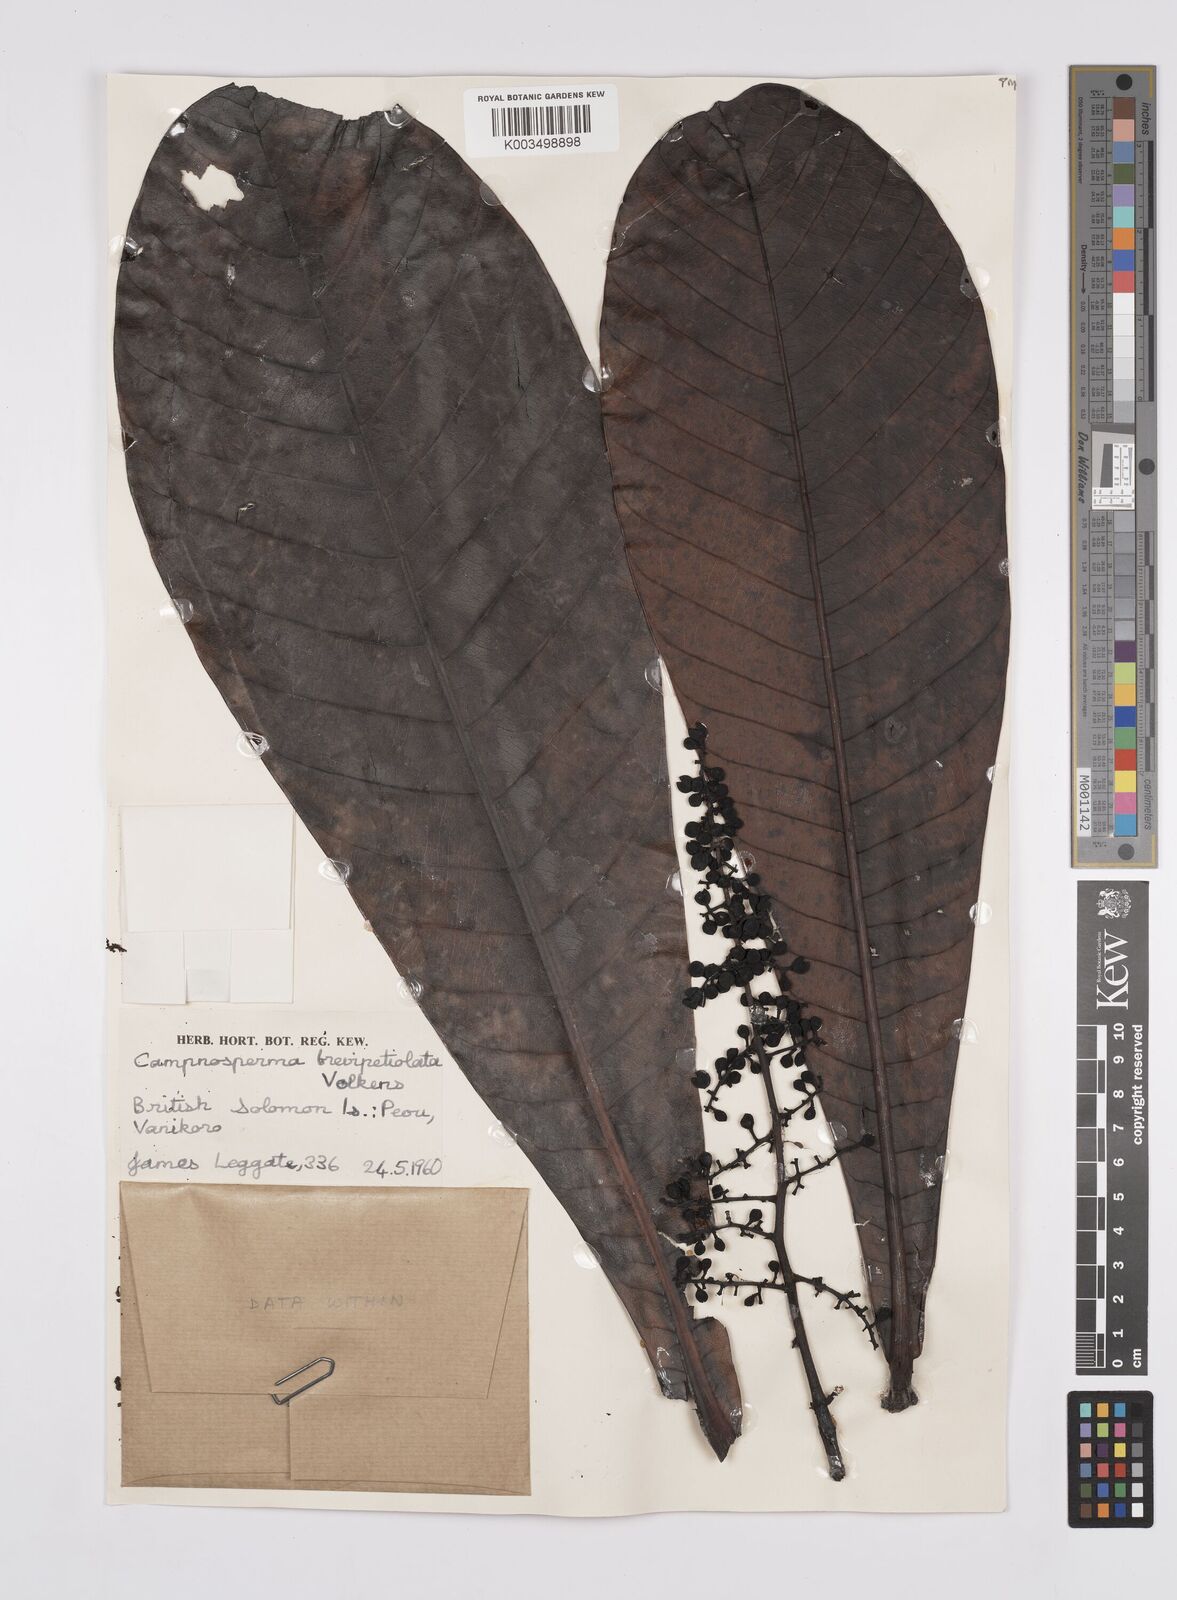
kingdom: Plantae
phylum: Tracheophyta
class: Magnoliopsida
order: Sapindales
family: Anacardiaceae
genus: Campnosperma
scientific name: Campnosperma brevipetiolatum
